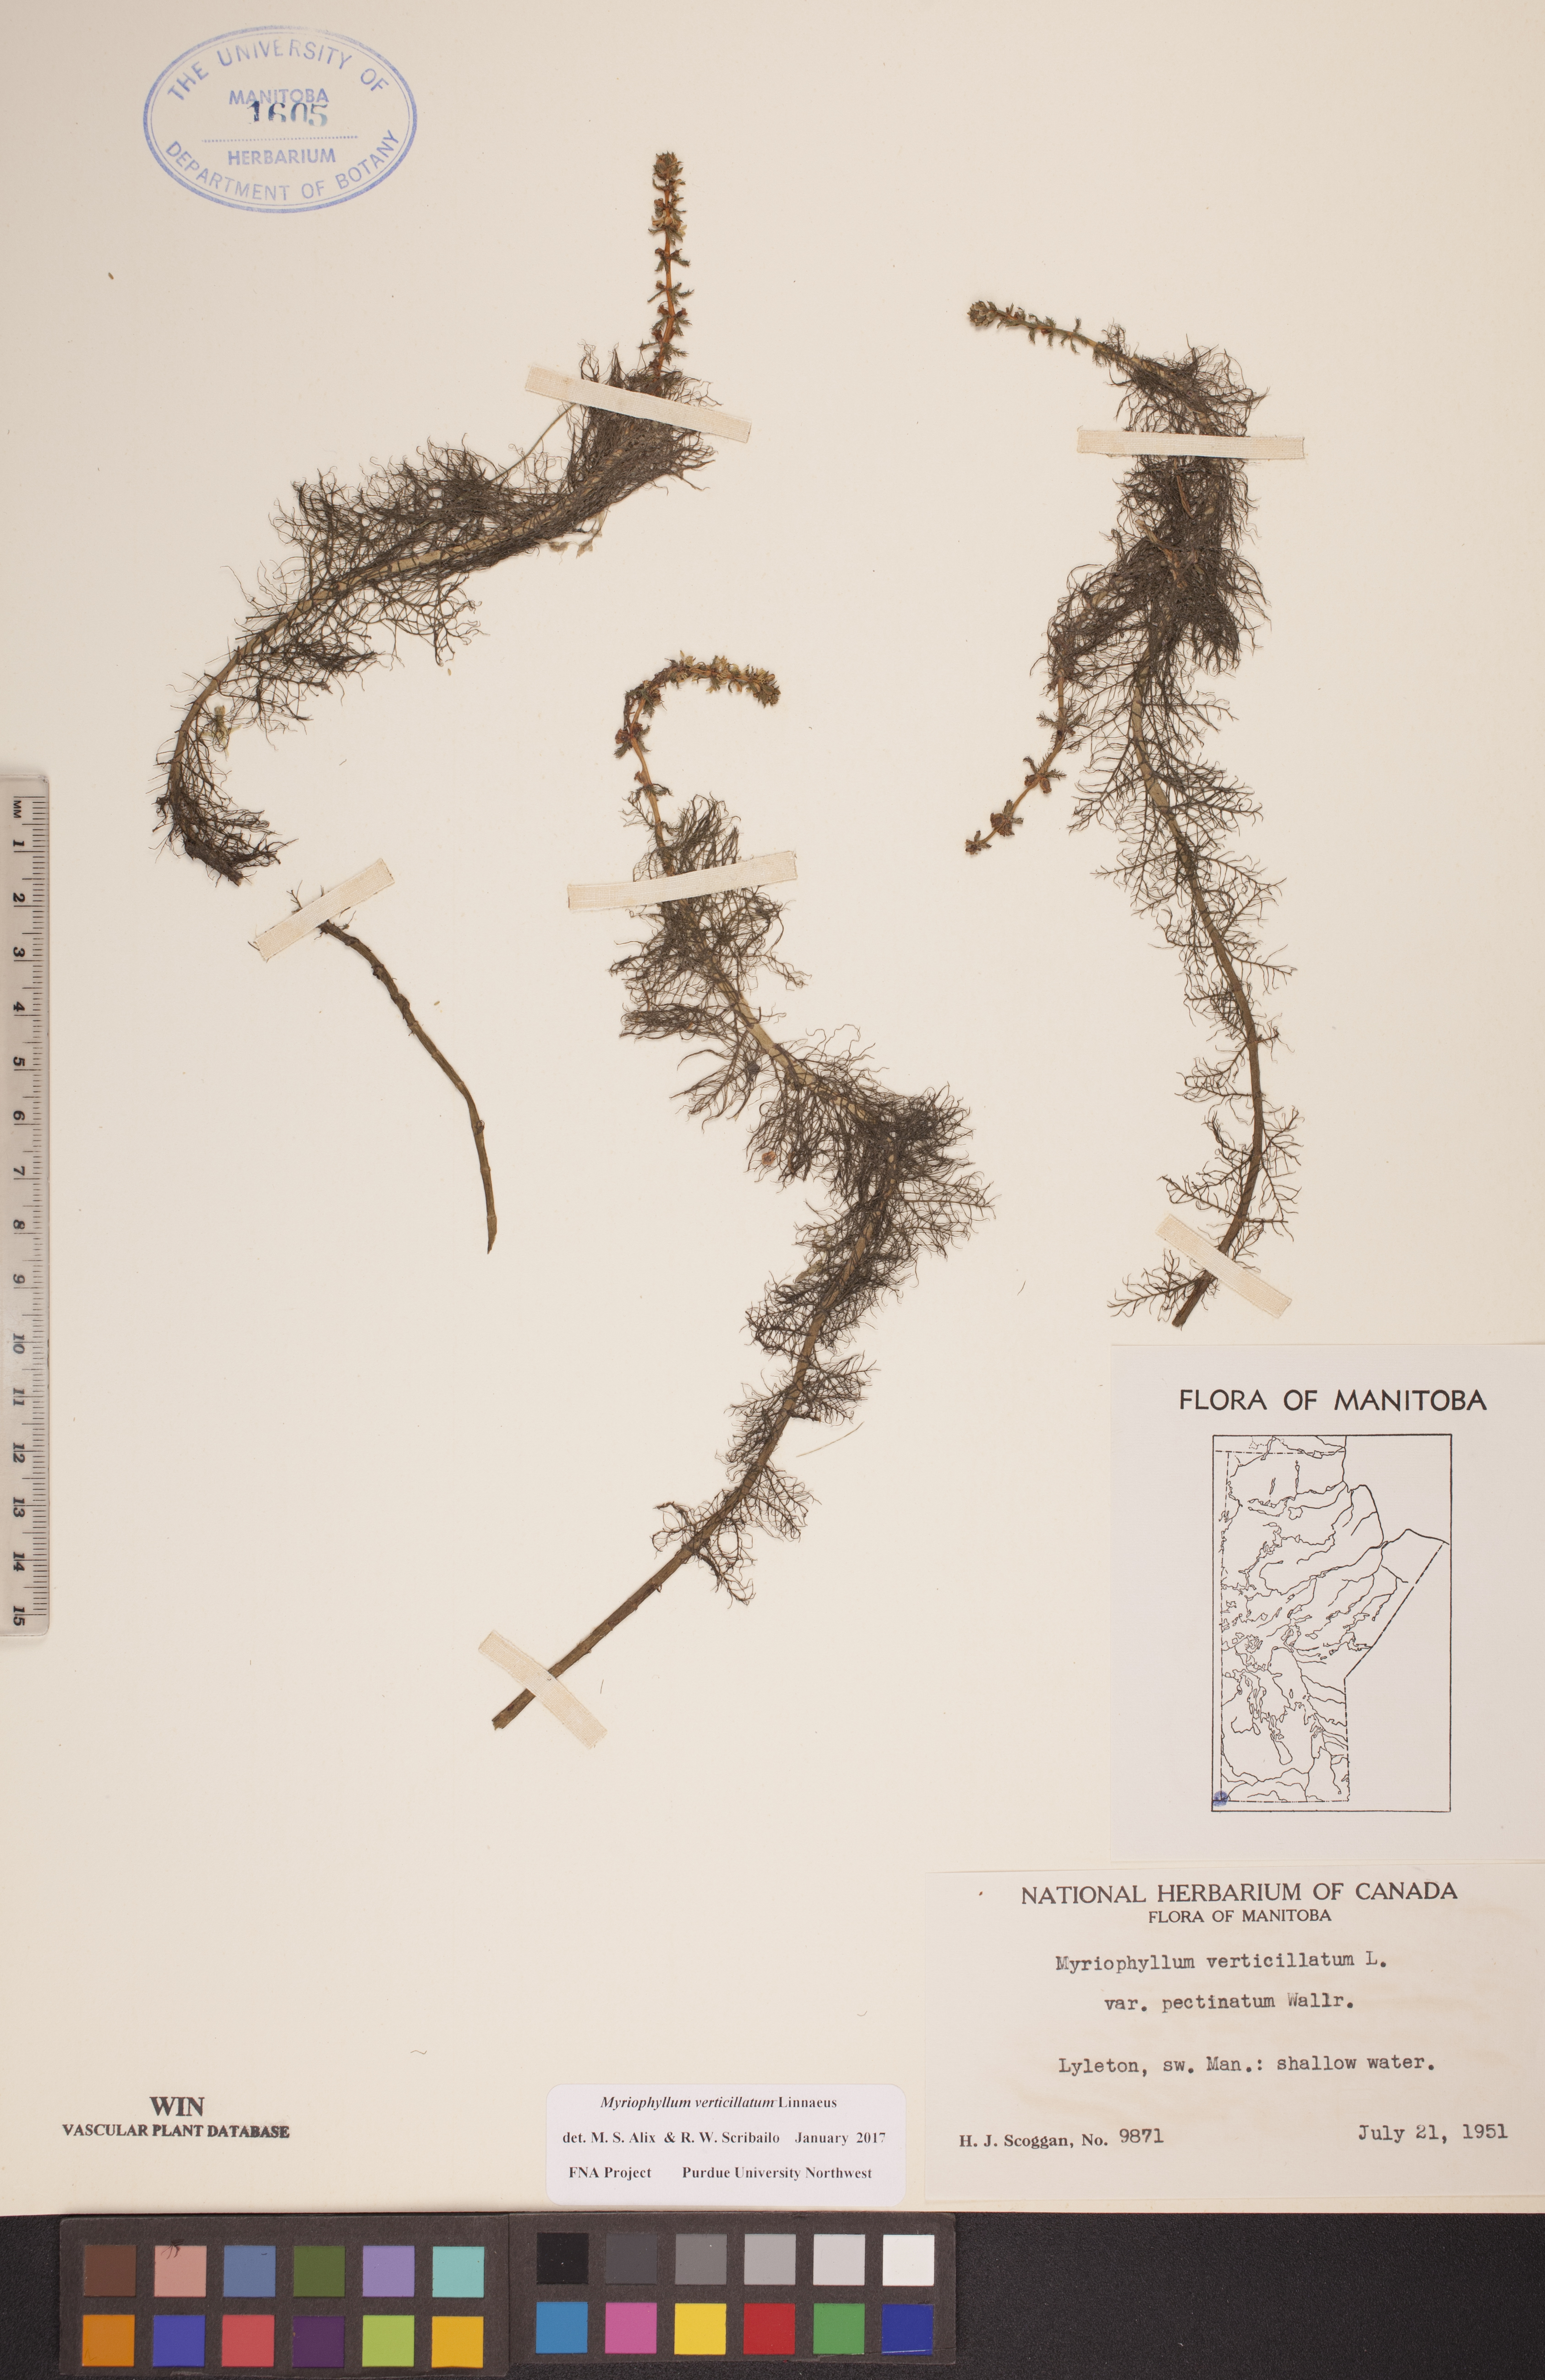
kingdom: Plantae
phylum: Tracheophyta
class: Magnoliopsida
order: Saxifragales
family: Haloragaceae
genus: Myriophyllum
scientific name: Myriophyllum verticillatum
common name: Whorled water-milfoil
